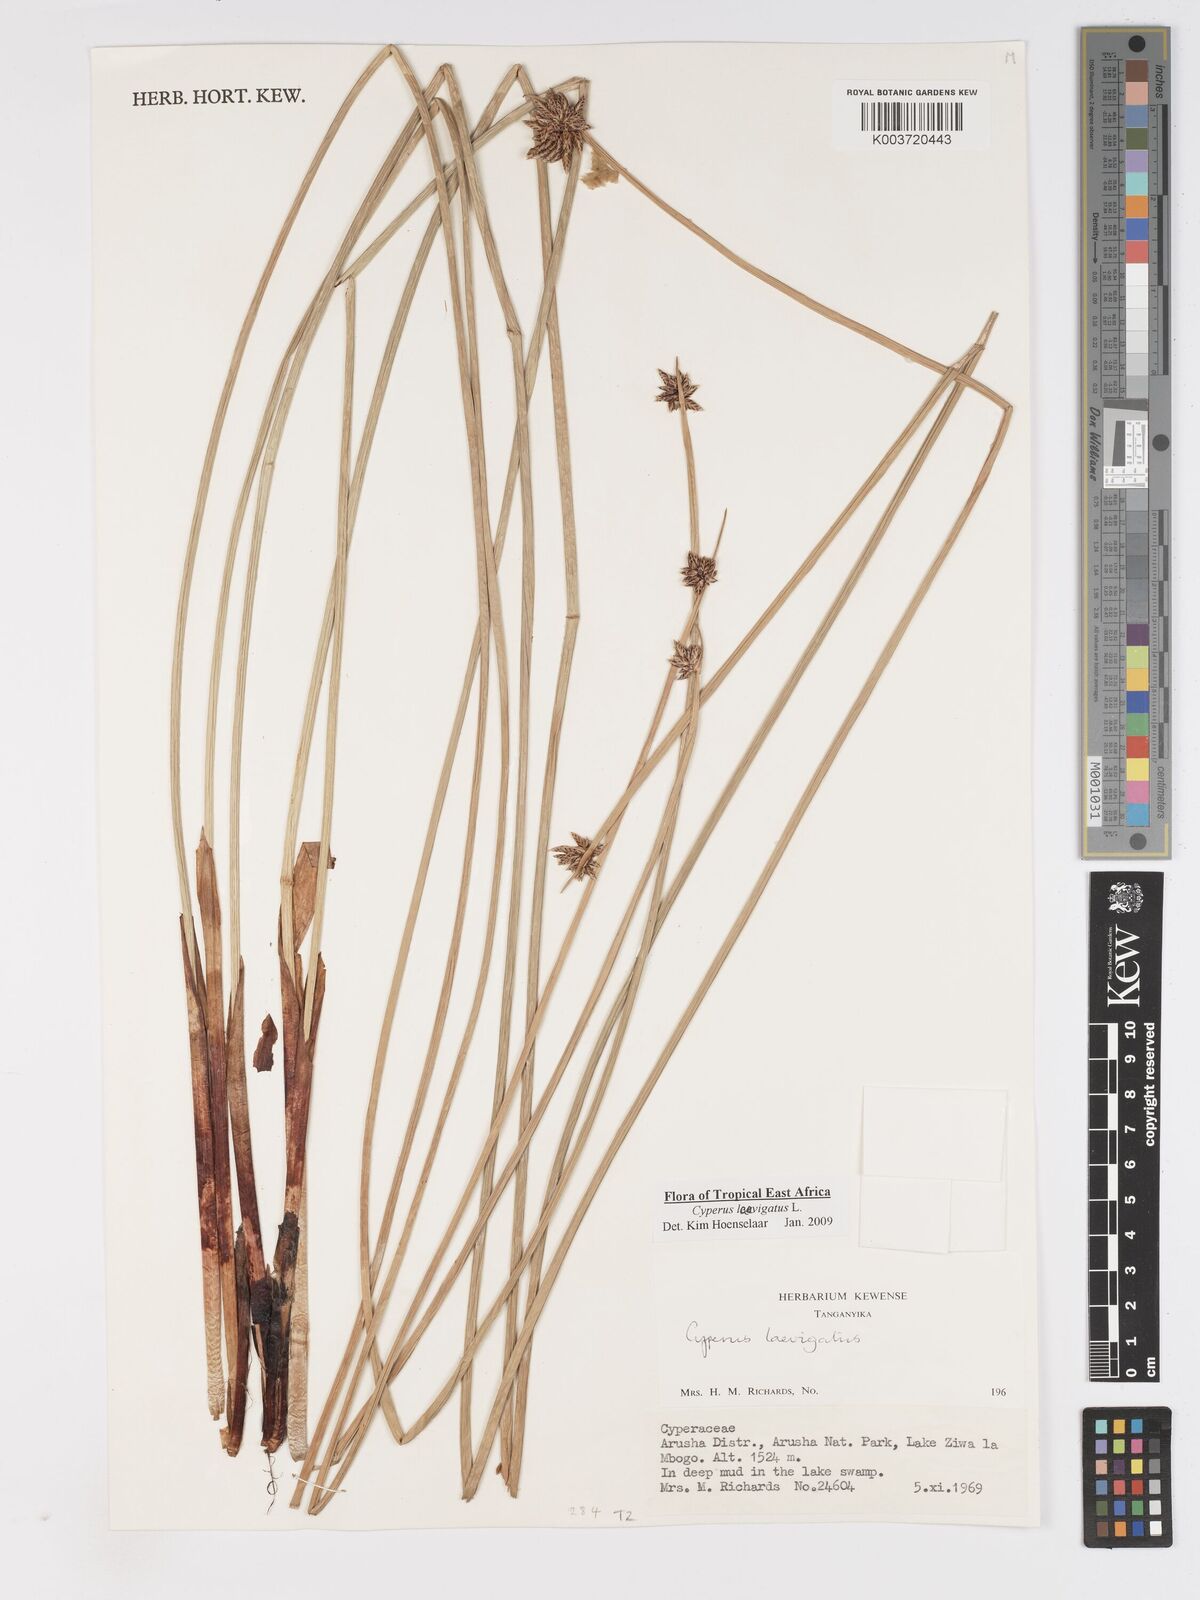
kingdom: Plantae
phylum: Tracheophyta
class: Liliopsida
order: Poales
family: Cyperaceae
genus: Cyperus
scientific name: Cyperus laevigatus
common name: Smooth flat sedge
